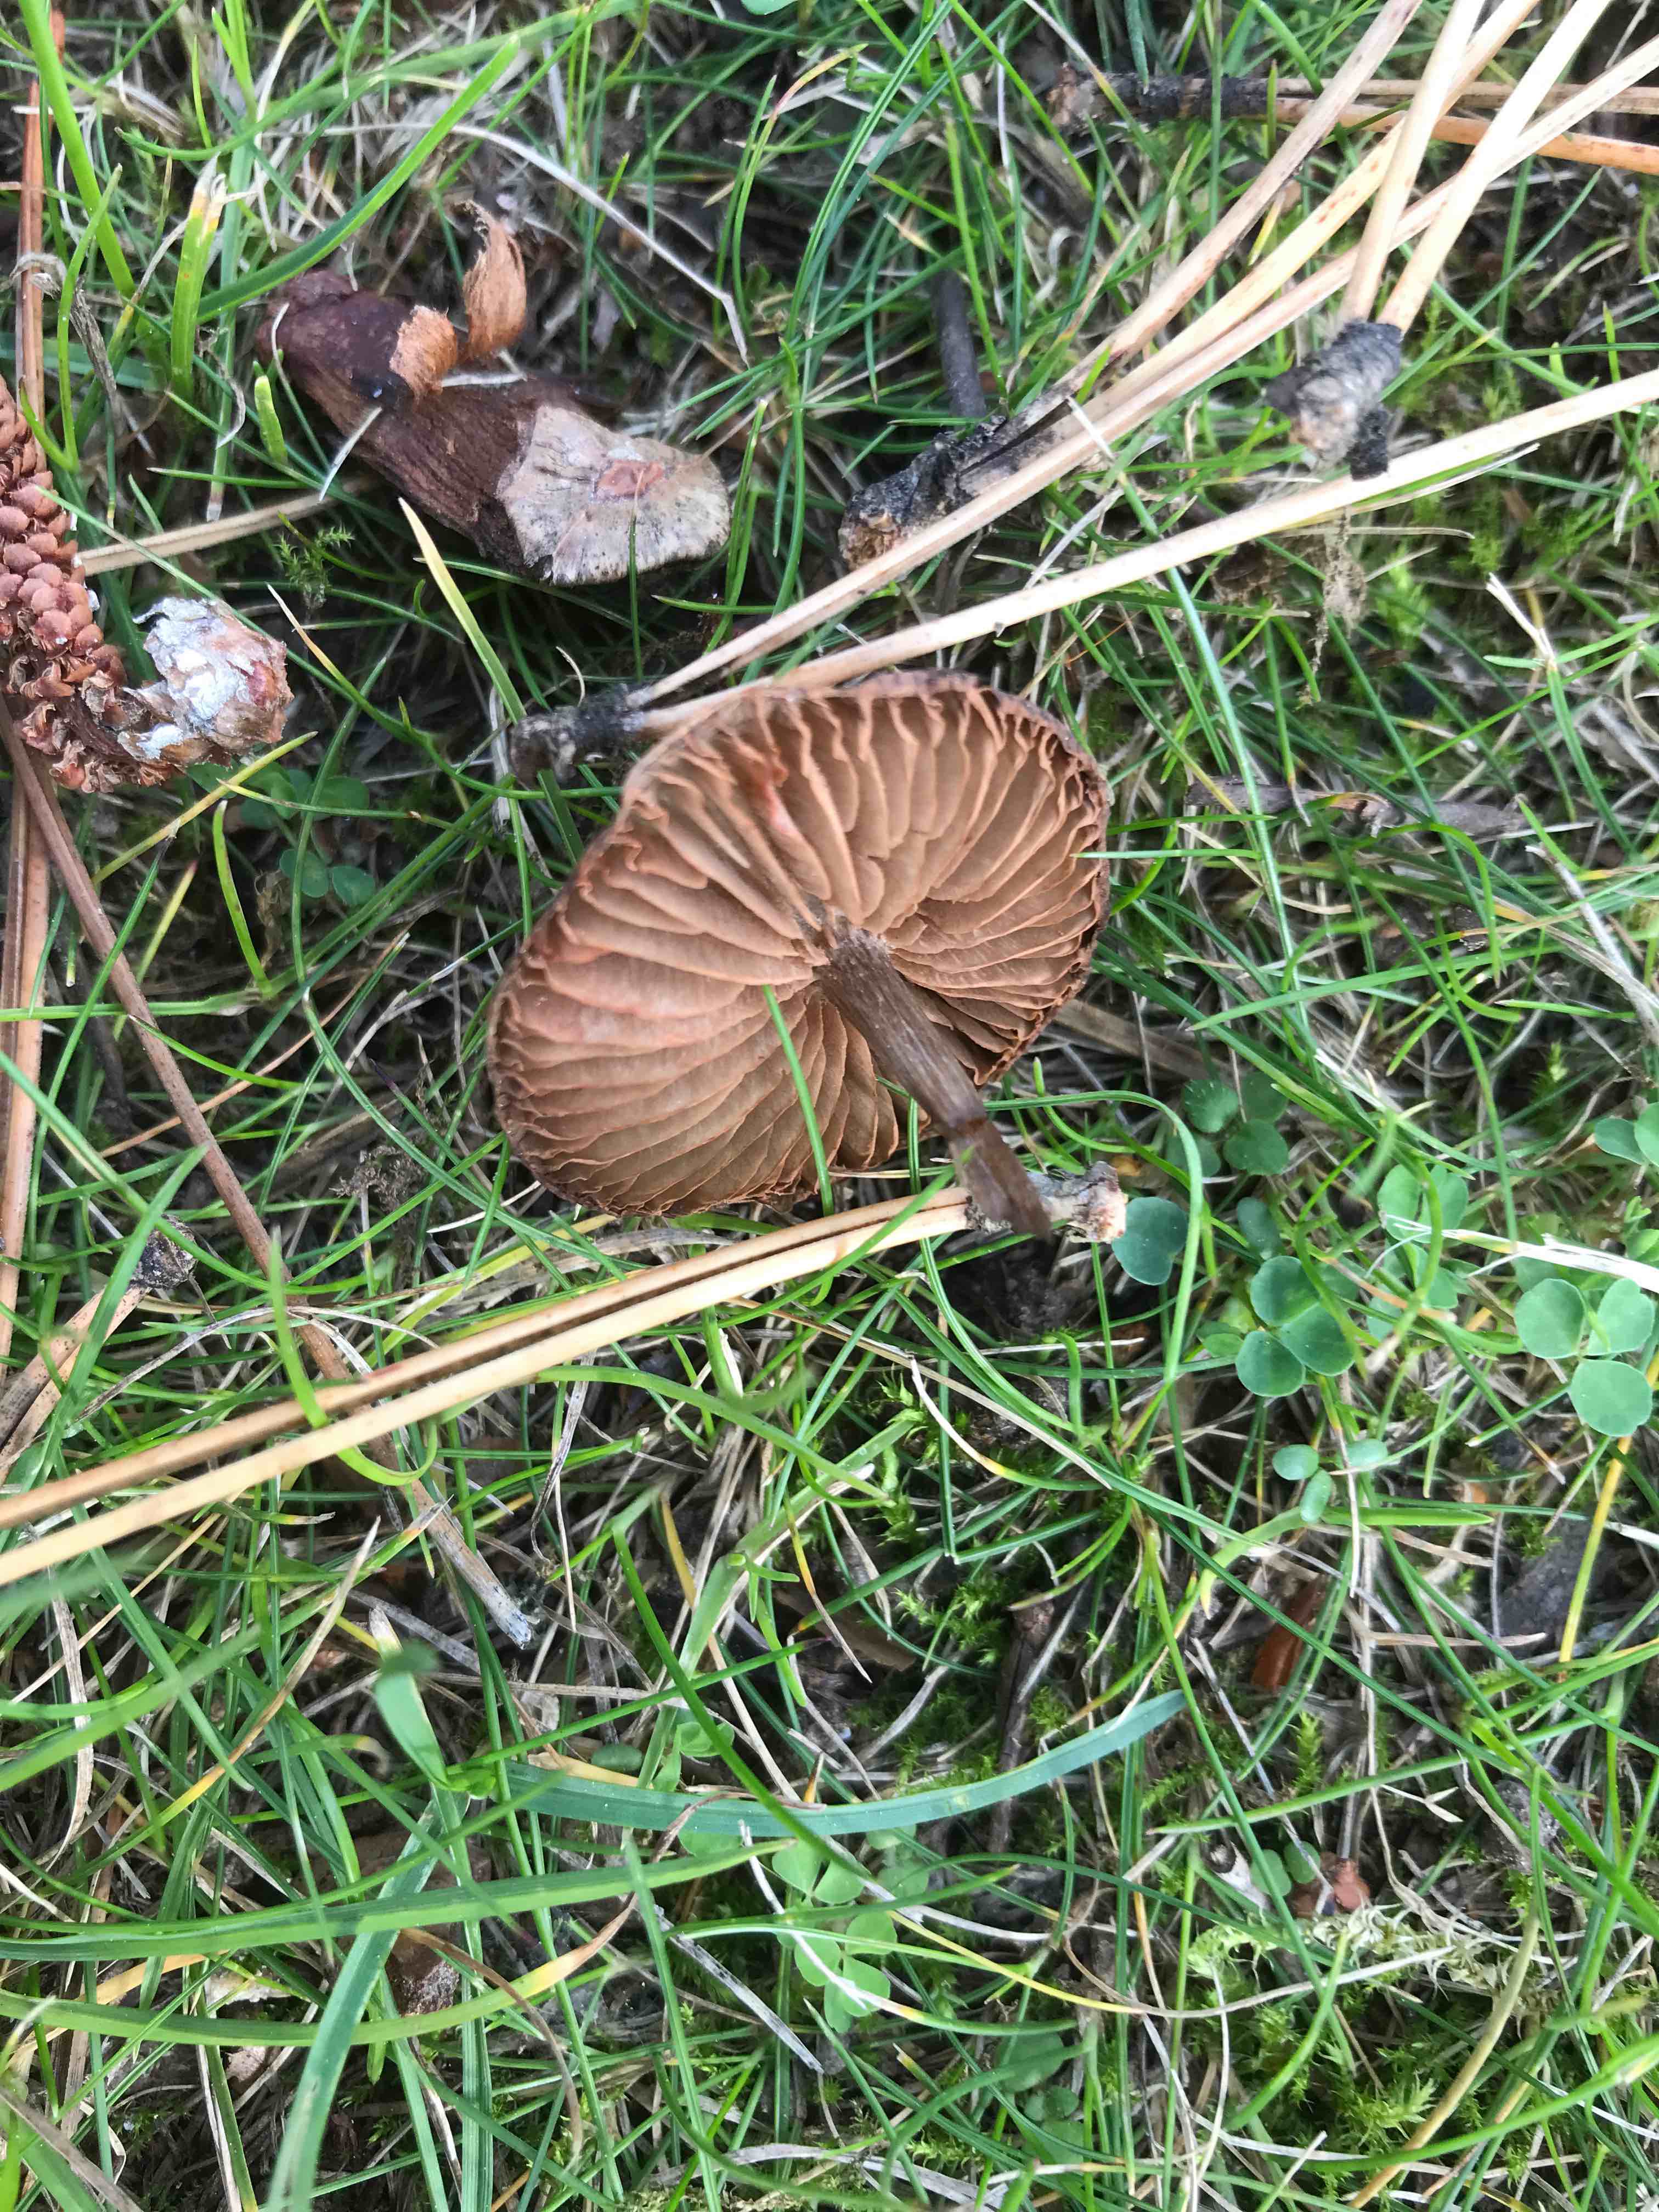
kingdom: Fungi
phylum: Basidiomycota
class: Agaricomycetes
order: Agaricales
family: Entolomataceae
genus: Entoloma
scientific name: Entoloma
